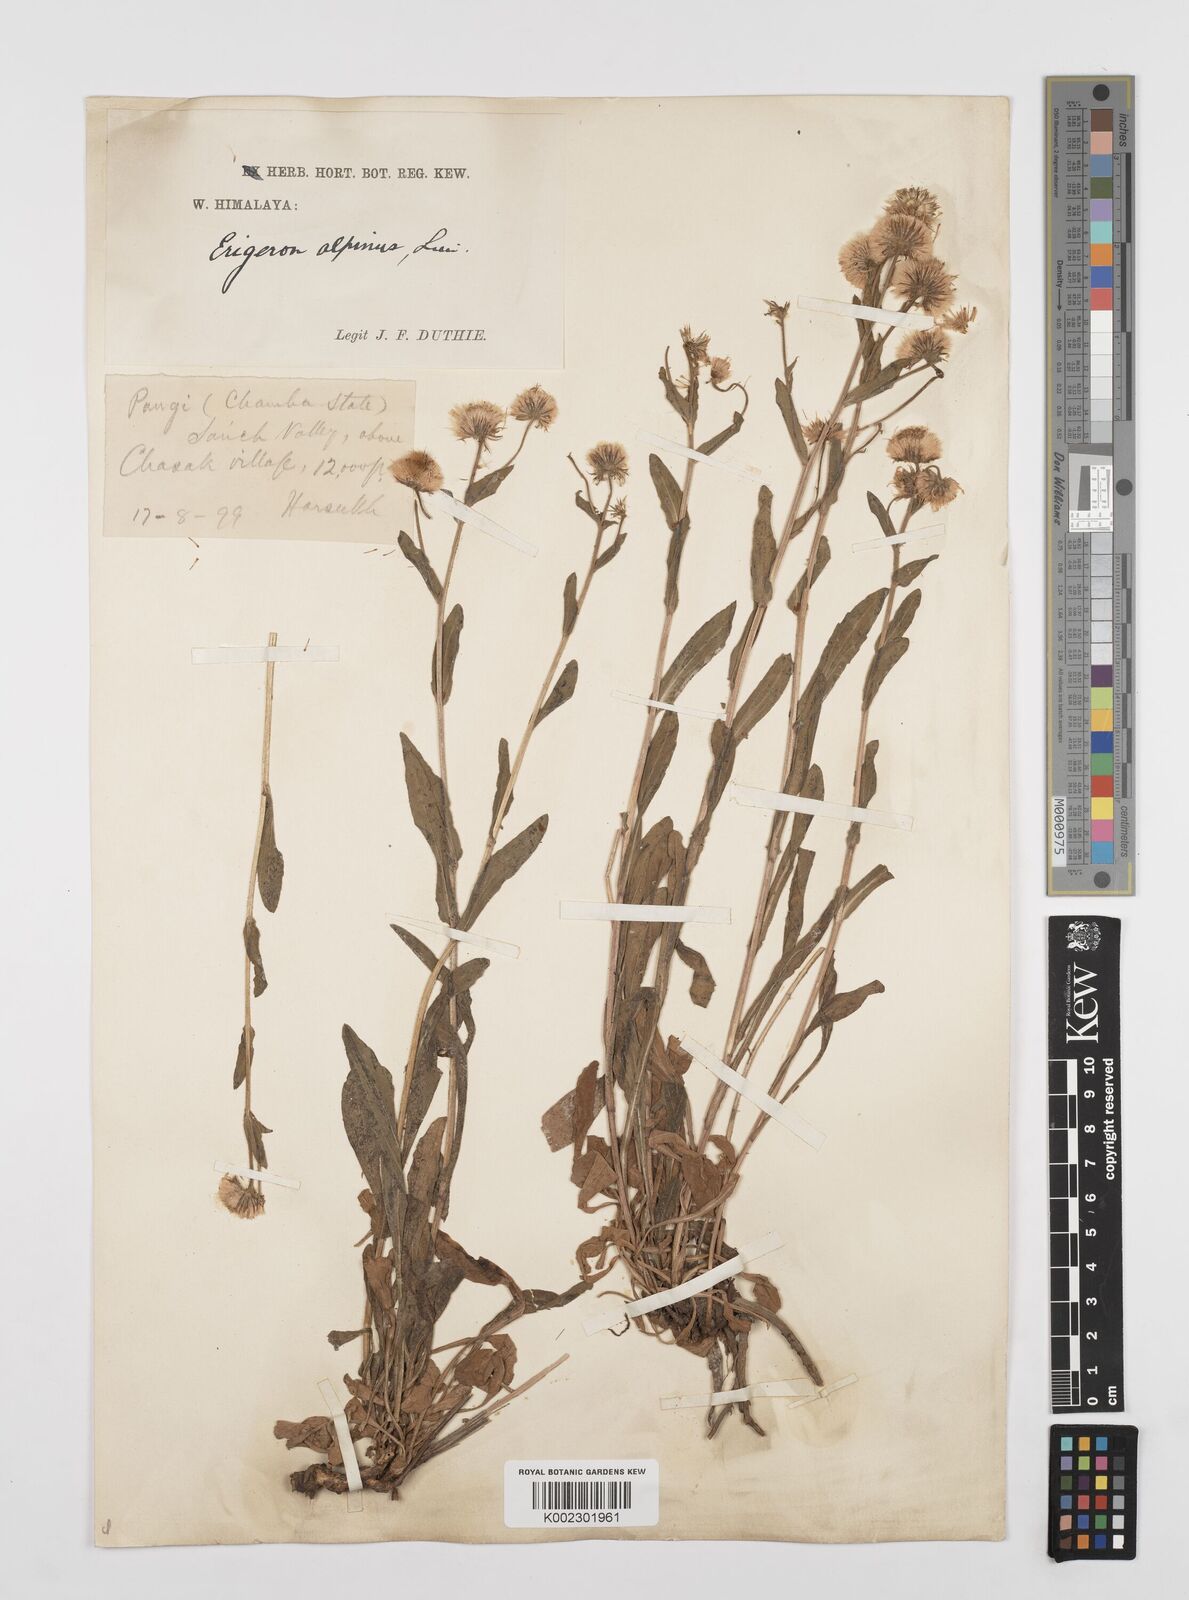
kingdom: Plantae
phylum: Tracheophyta
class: Magnoliopsida
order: Asterales
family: Asteraceae
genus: Erigeron
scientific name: Erigeron alpinus
